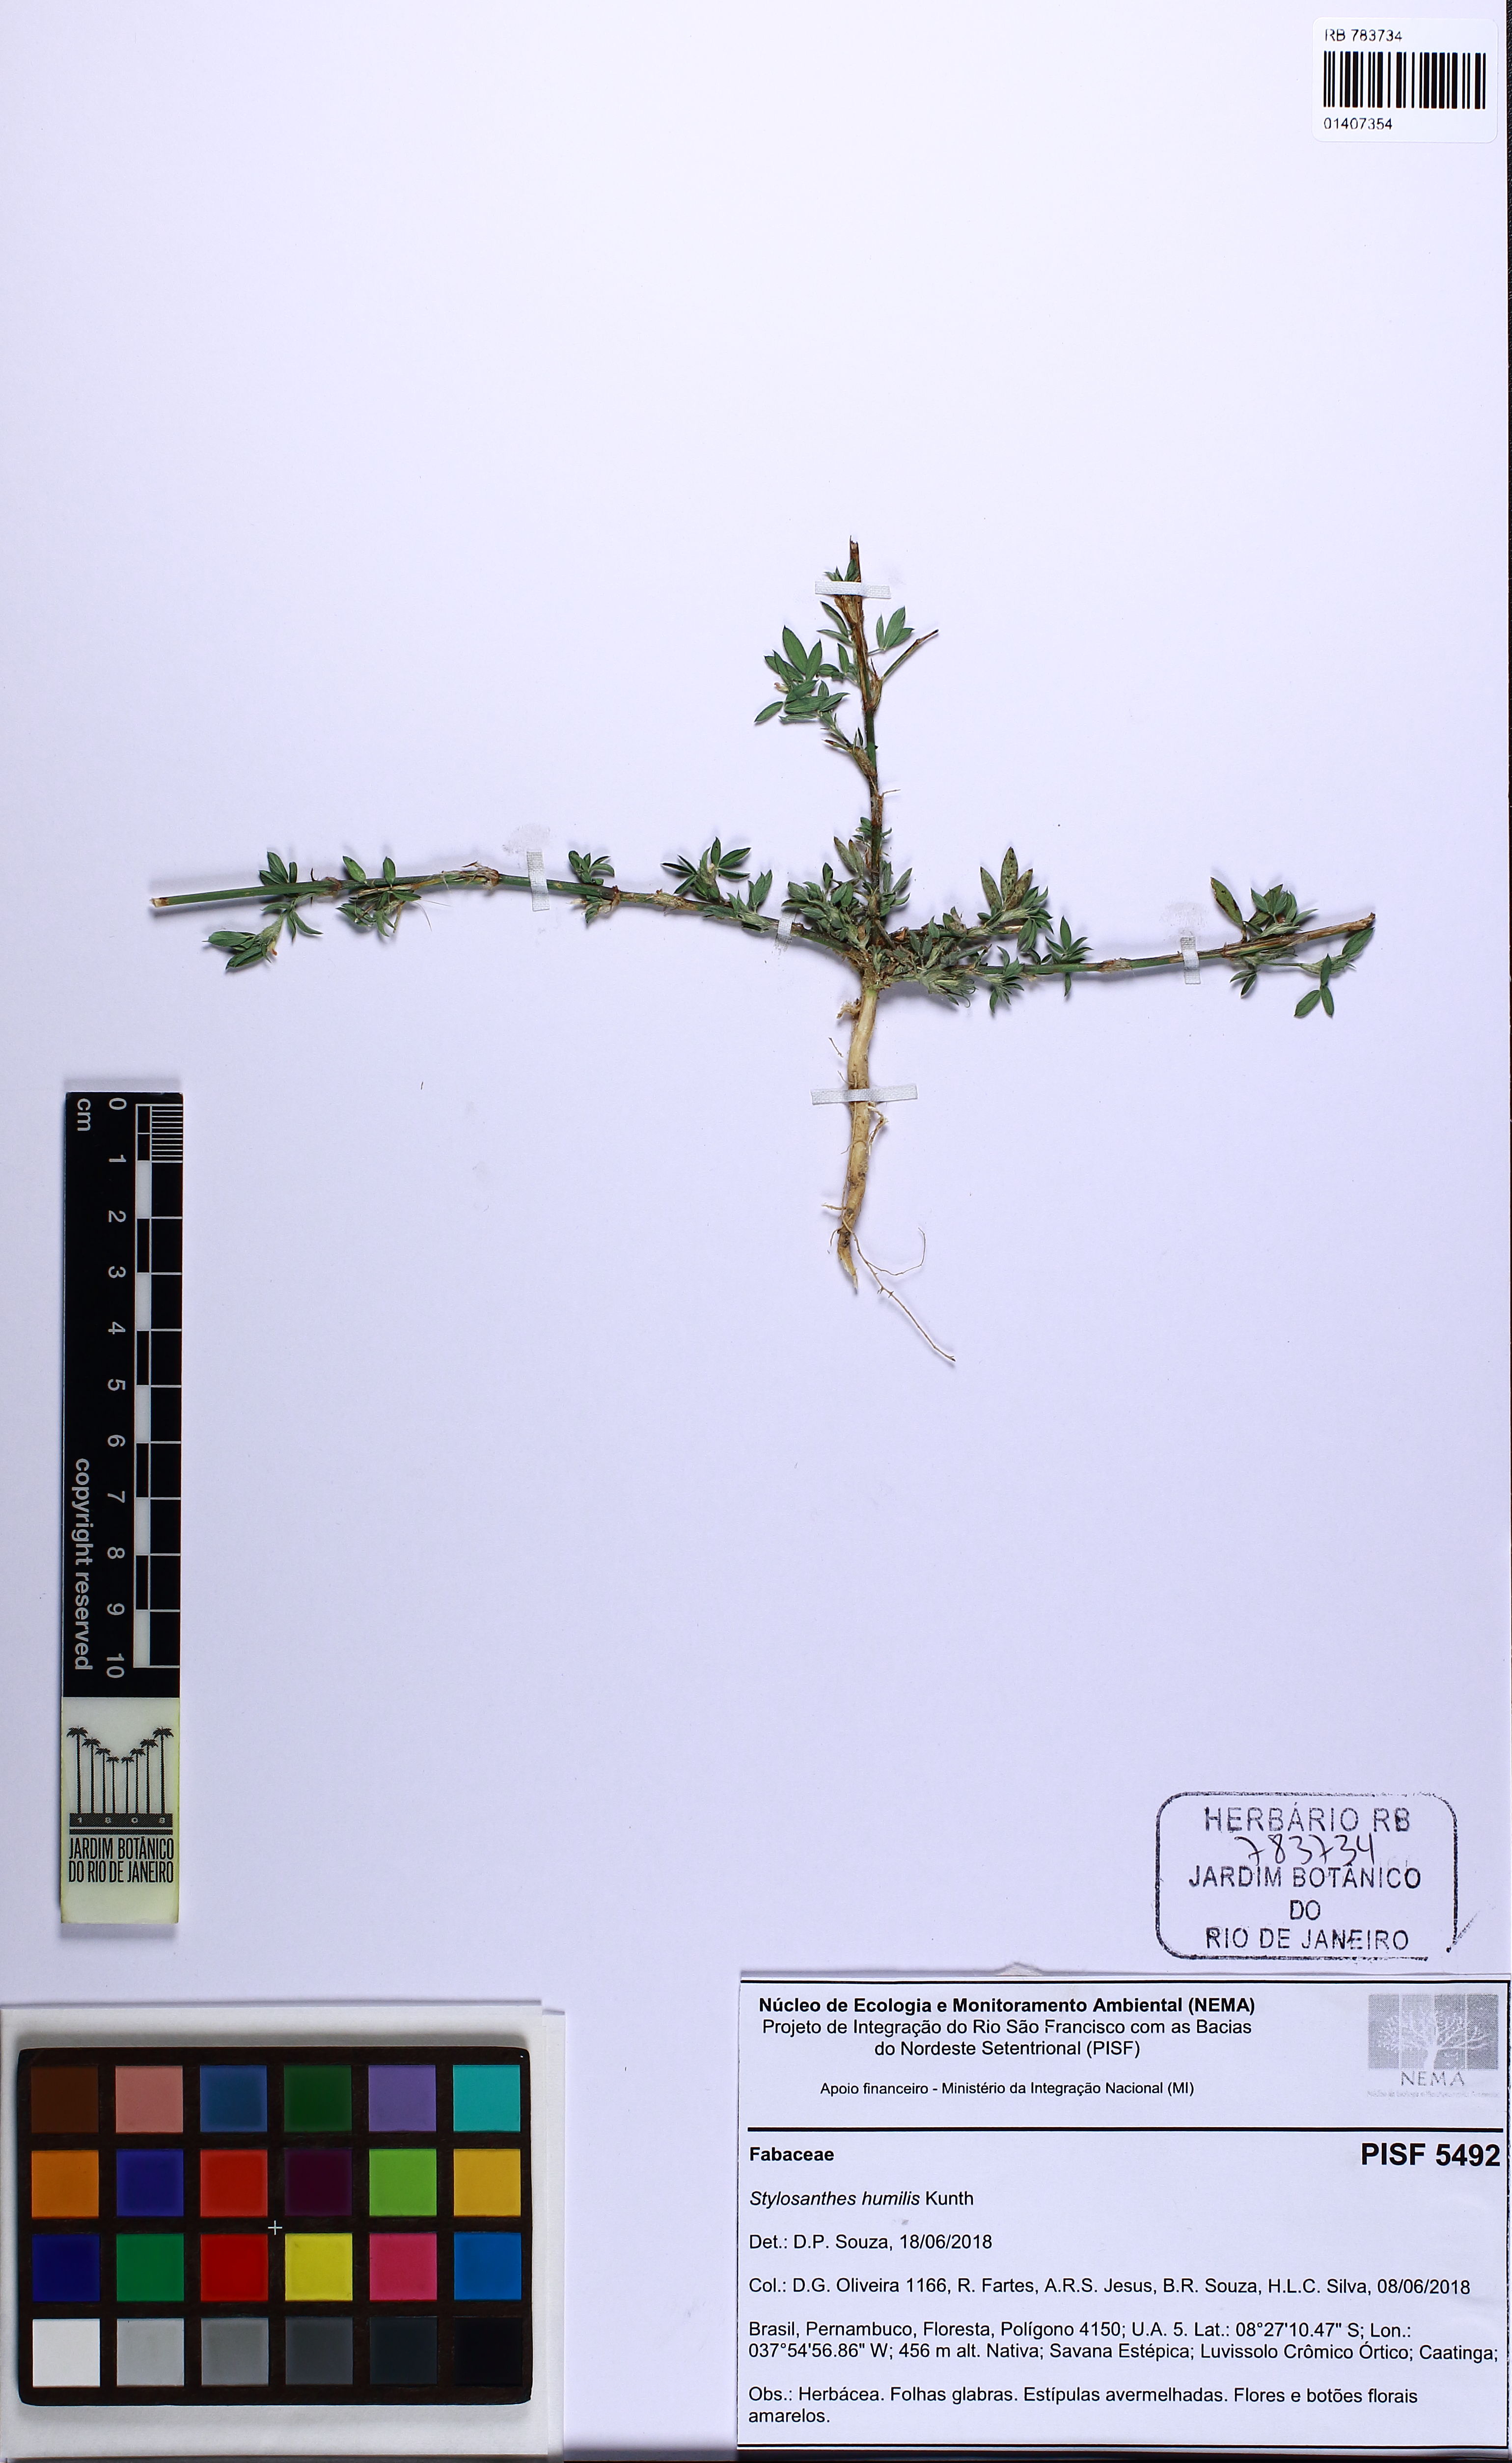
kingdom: Plantae
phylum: Tracheophyta
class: Magnoliopsida
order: Fabales
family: Fabaceae
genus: Stylosanthes
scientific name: Stylosanthes humilis
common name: Townsville stylo
